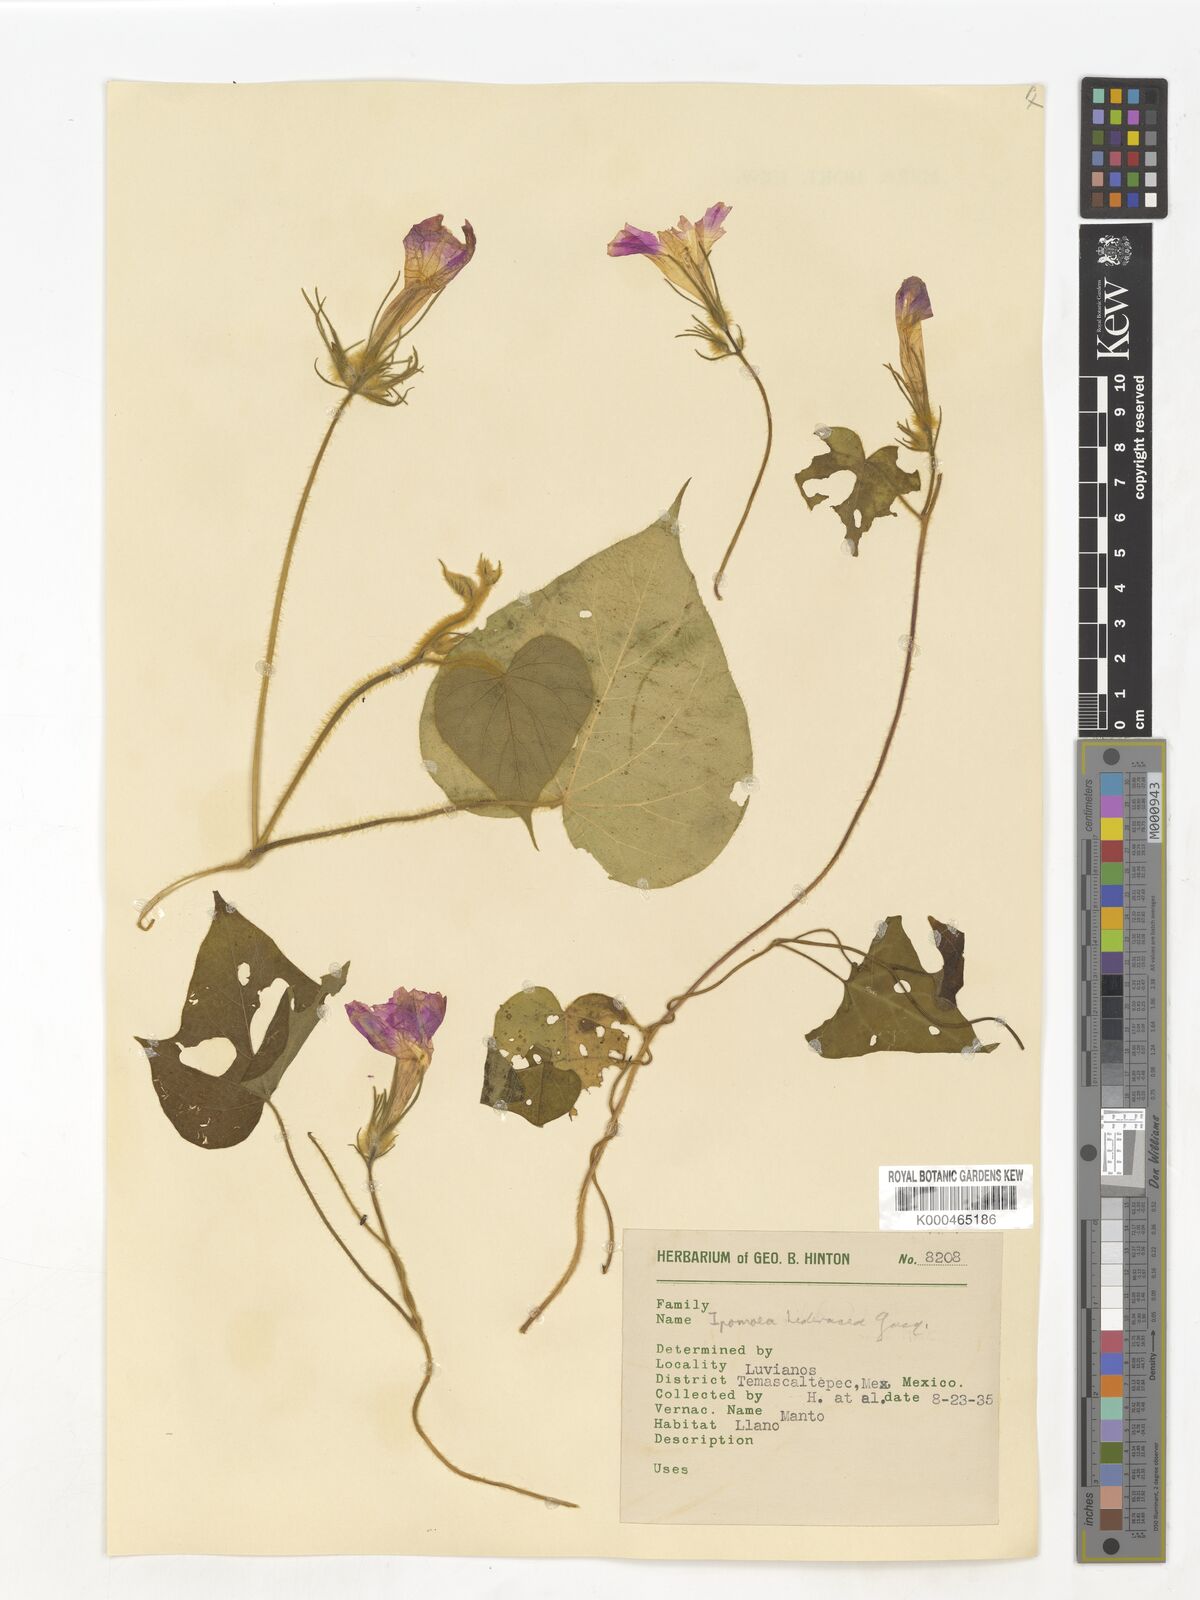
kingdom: Plantae
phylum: Tracheophyta
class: Magnoliopsida
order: Solanales
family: Convolvulaceae
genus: Ipomoea
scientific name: Ipomoea hederacea
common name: Ivy-leaved morning-glory
